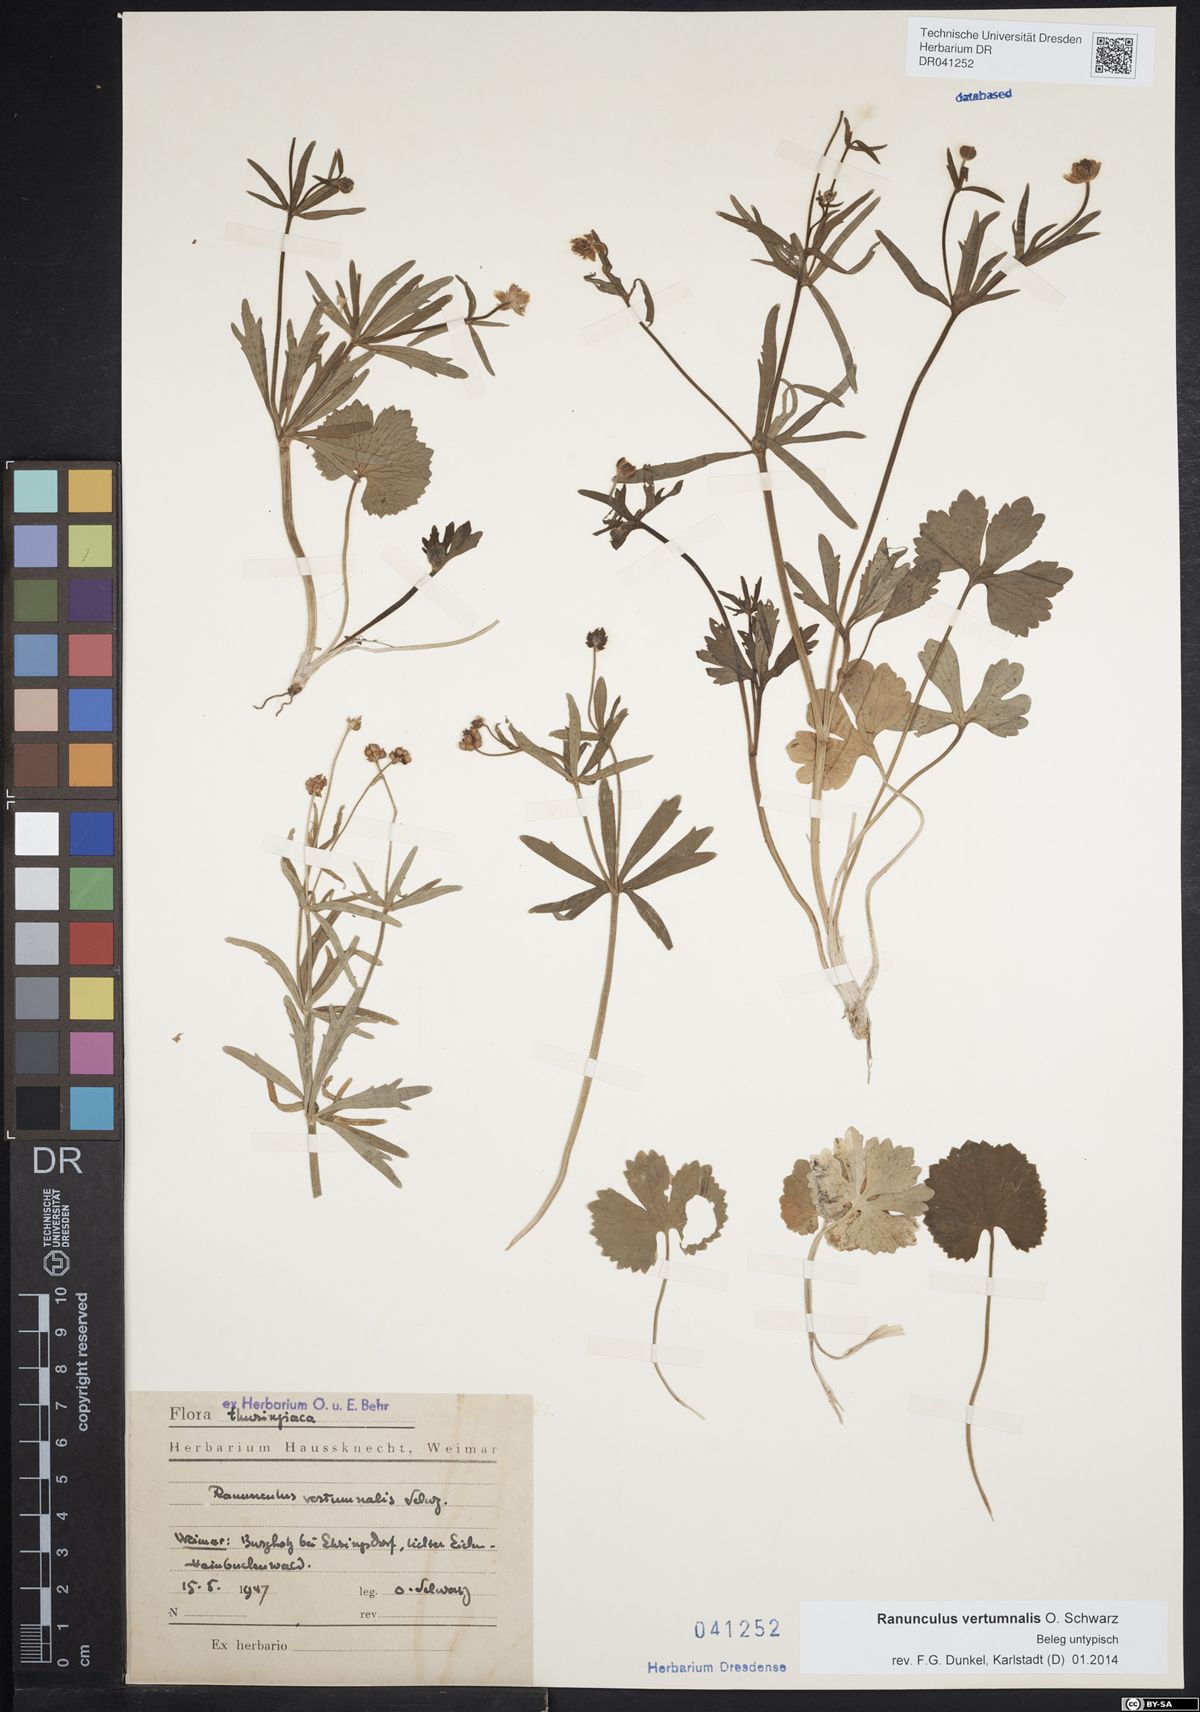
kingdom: Plantae
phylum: Tracheophyta
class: Magnoliopsida
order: Ranunculales
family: Ranunculaceae
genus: Ranunculus
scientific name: Ranunculus vertumnalis
